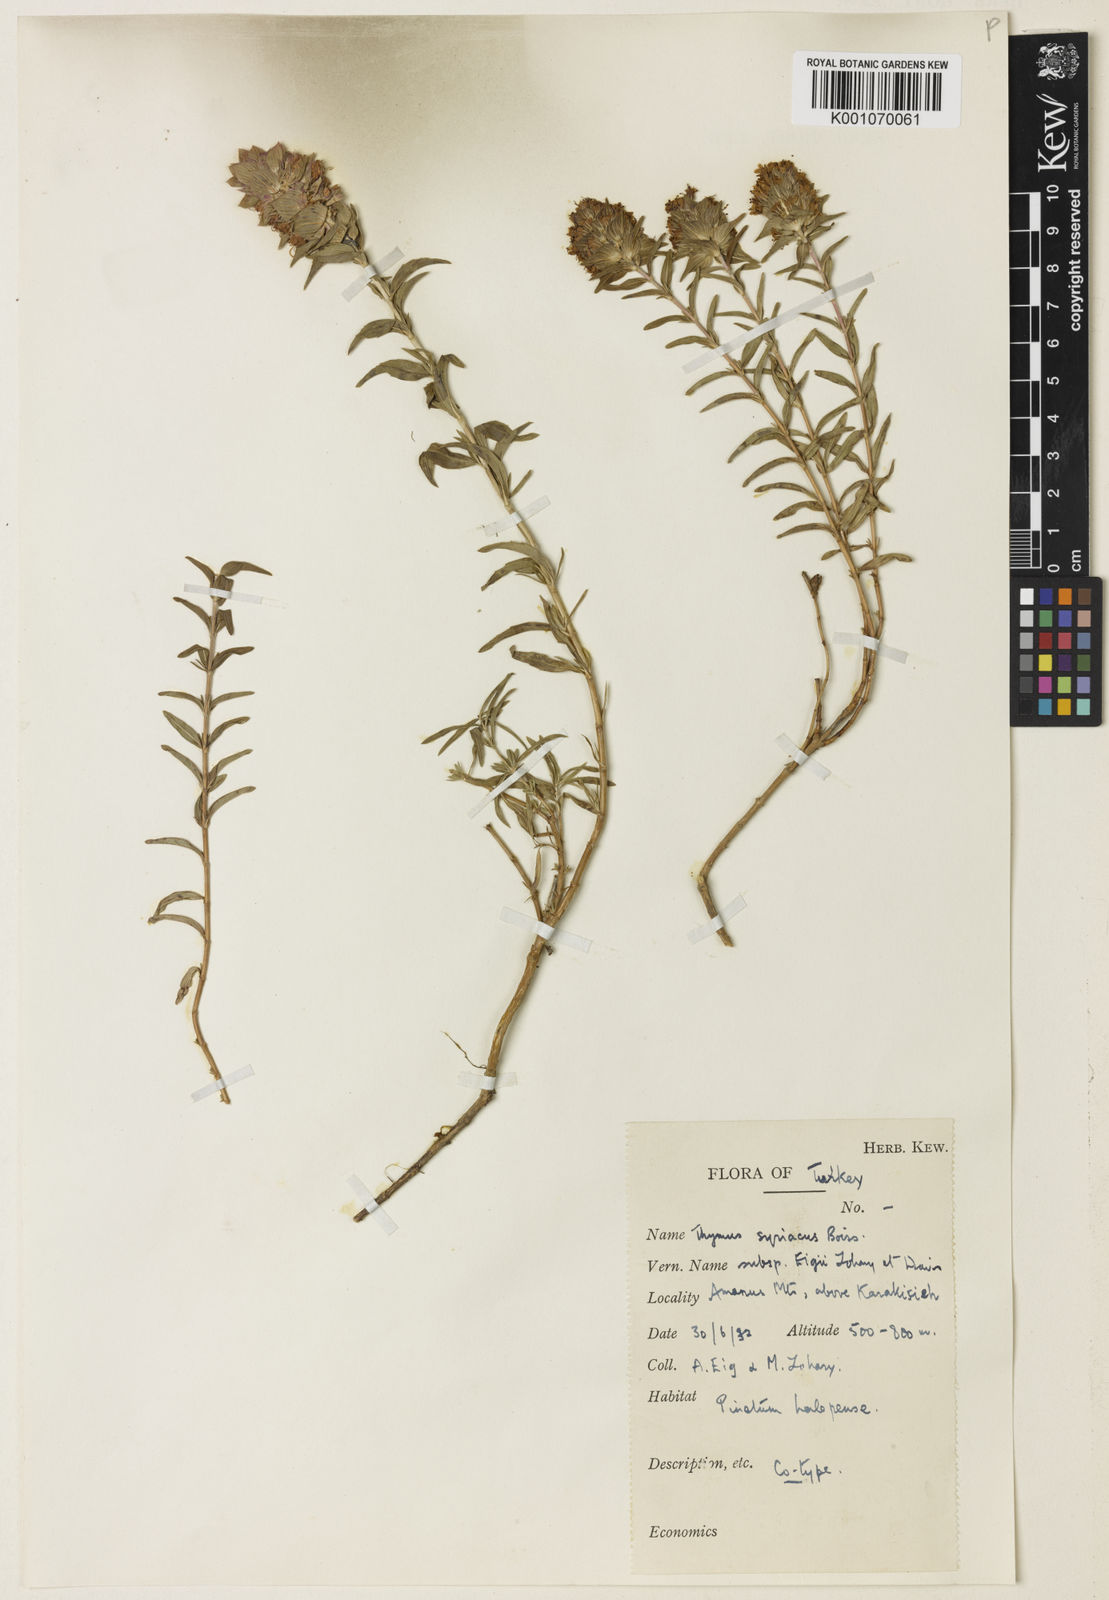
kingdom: Plantae
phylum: Tracheophyta
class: Magnoliopsida
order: Lamiales
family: Lamiaceae
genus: Thymus
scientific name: Thymus syriacus
